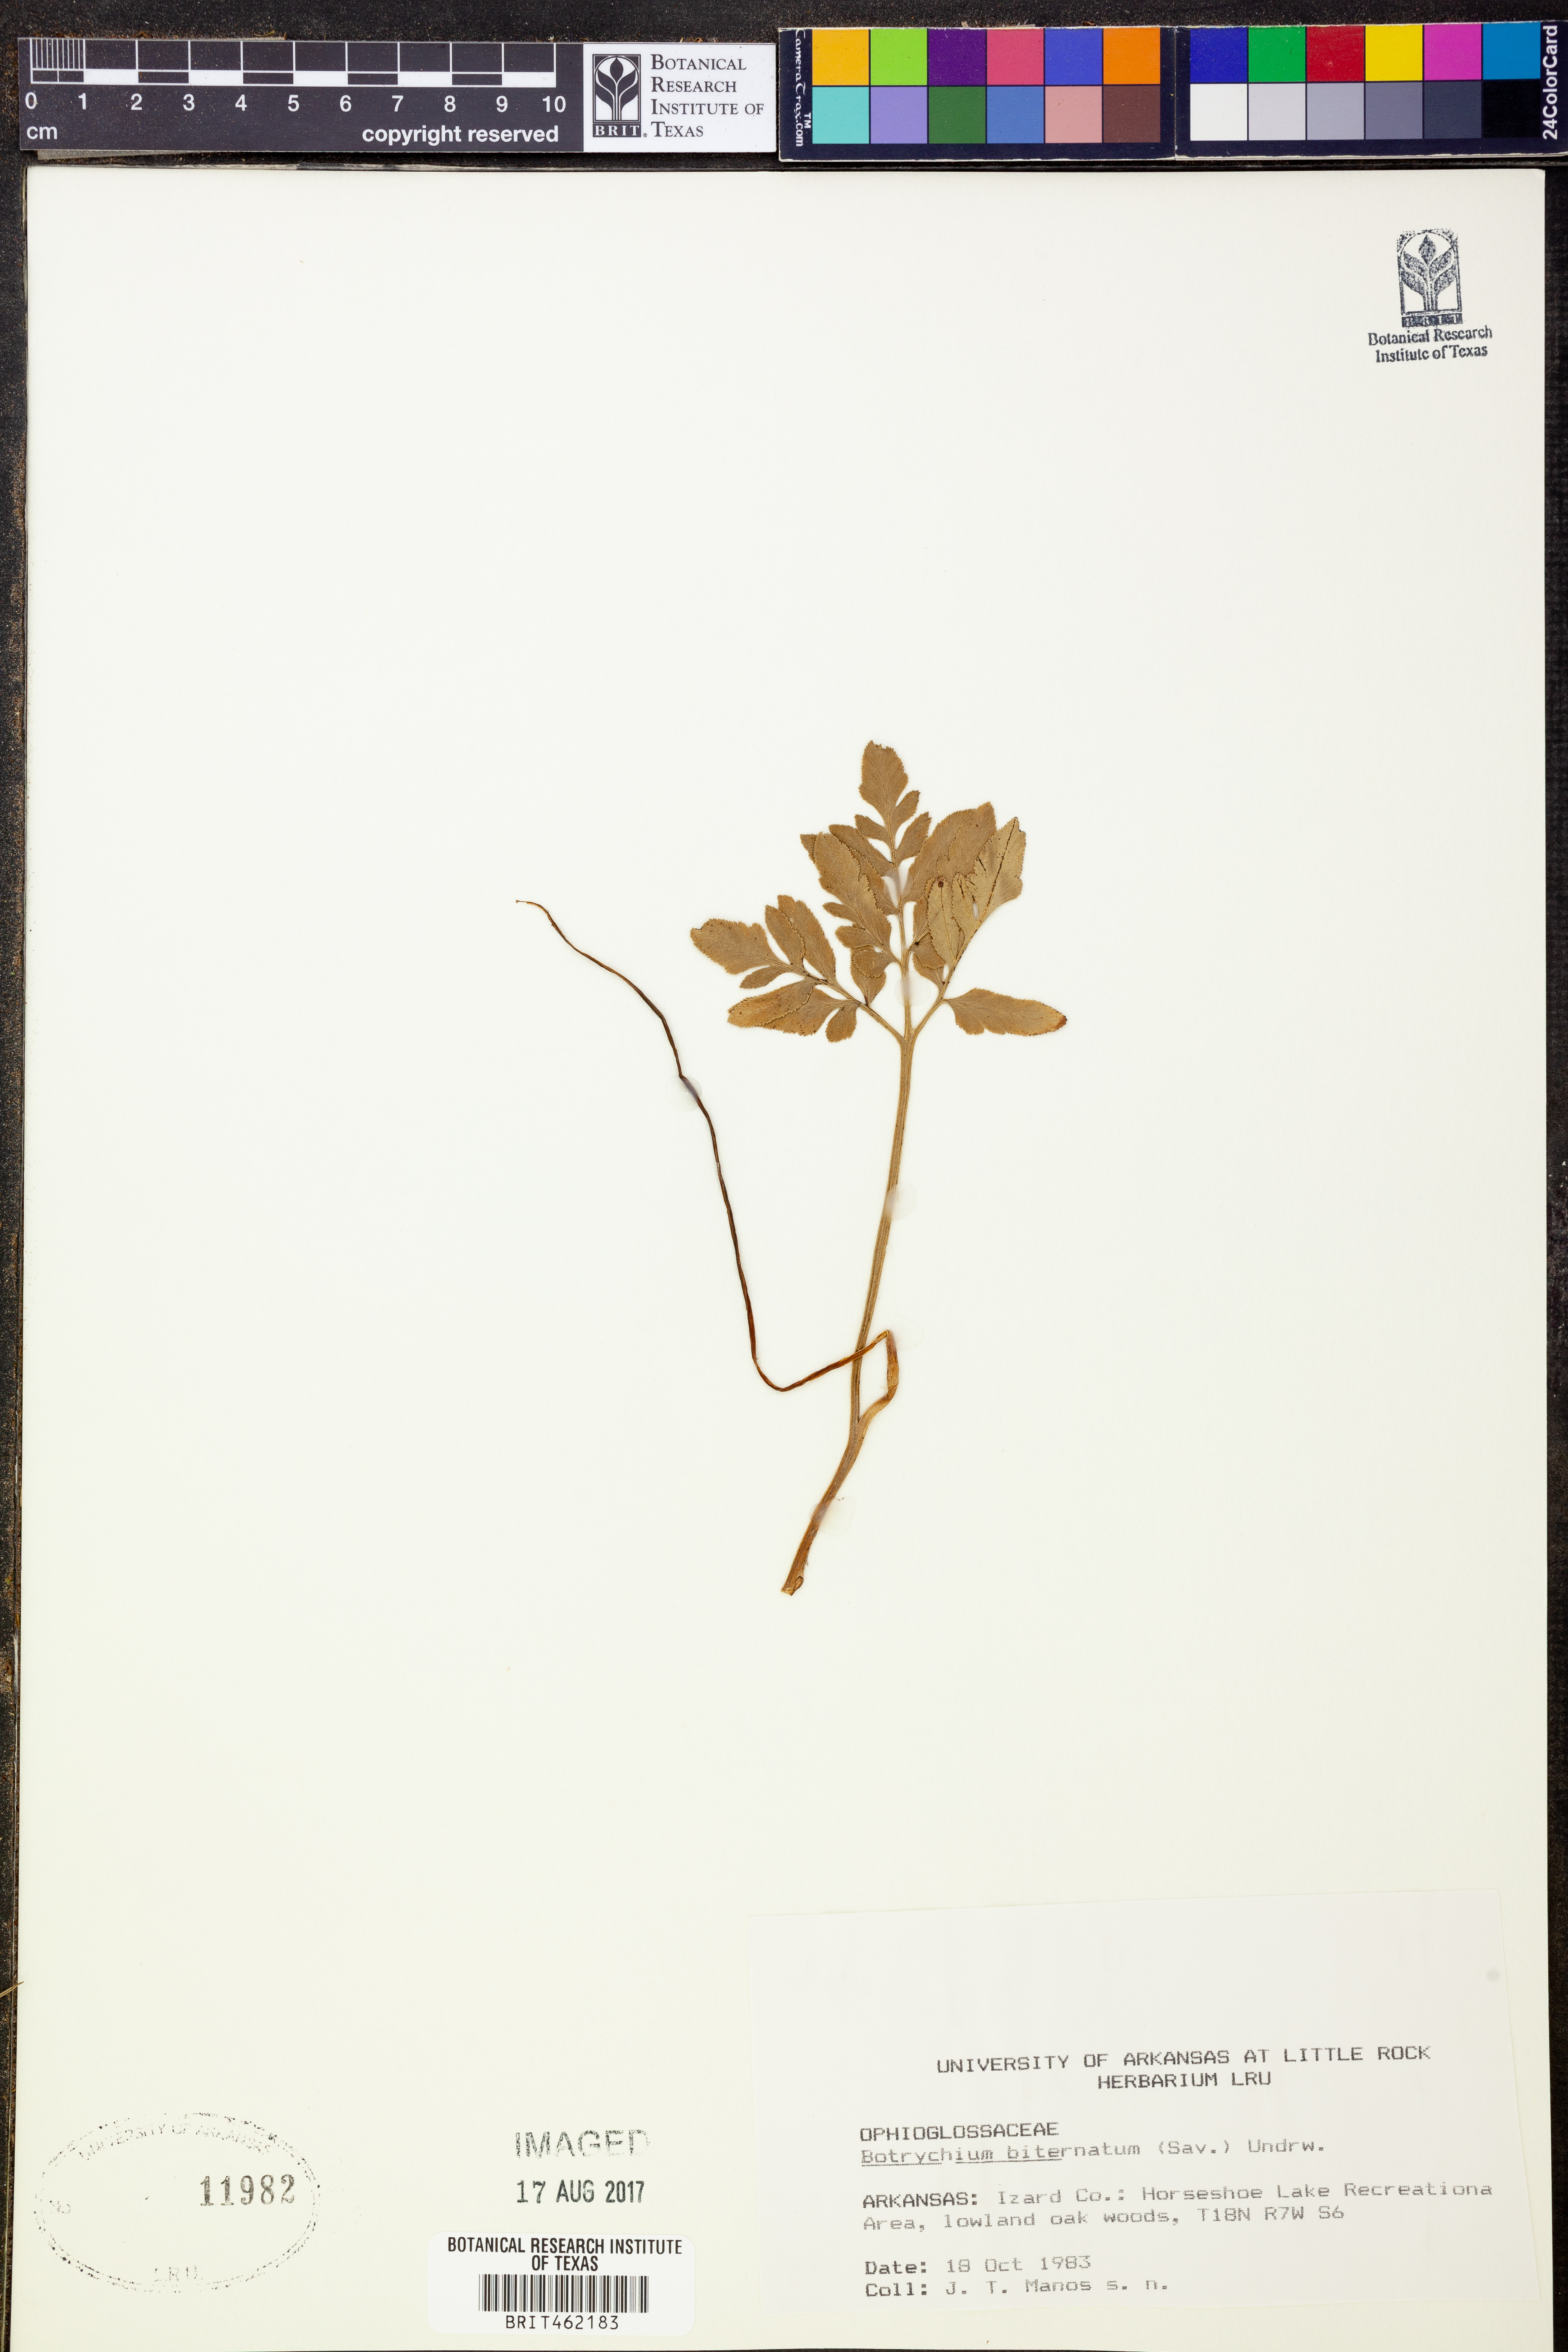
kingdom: Plantae
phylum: Tracheophyta
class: Polypodiopsida
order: Ophioglossales
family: Ophioglossaceae
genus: Sceptridium
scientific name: Sceptridium biternatum
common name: Sparse-lobed grapefern
